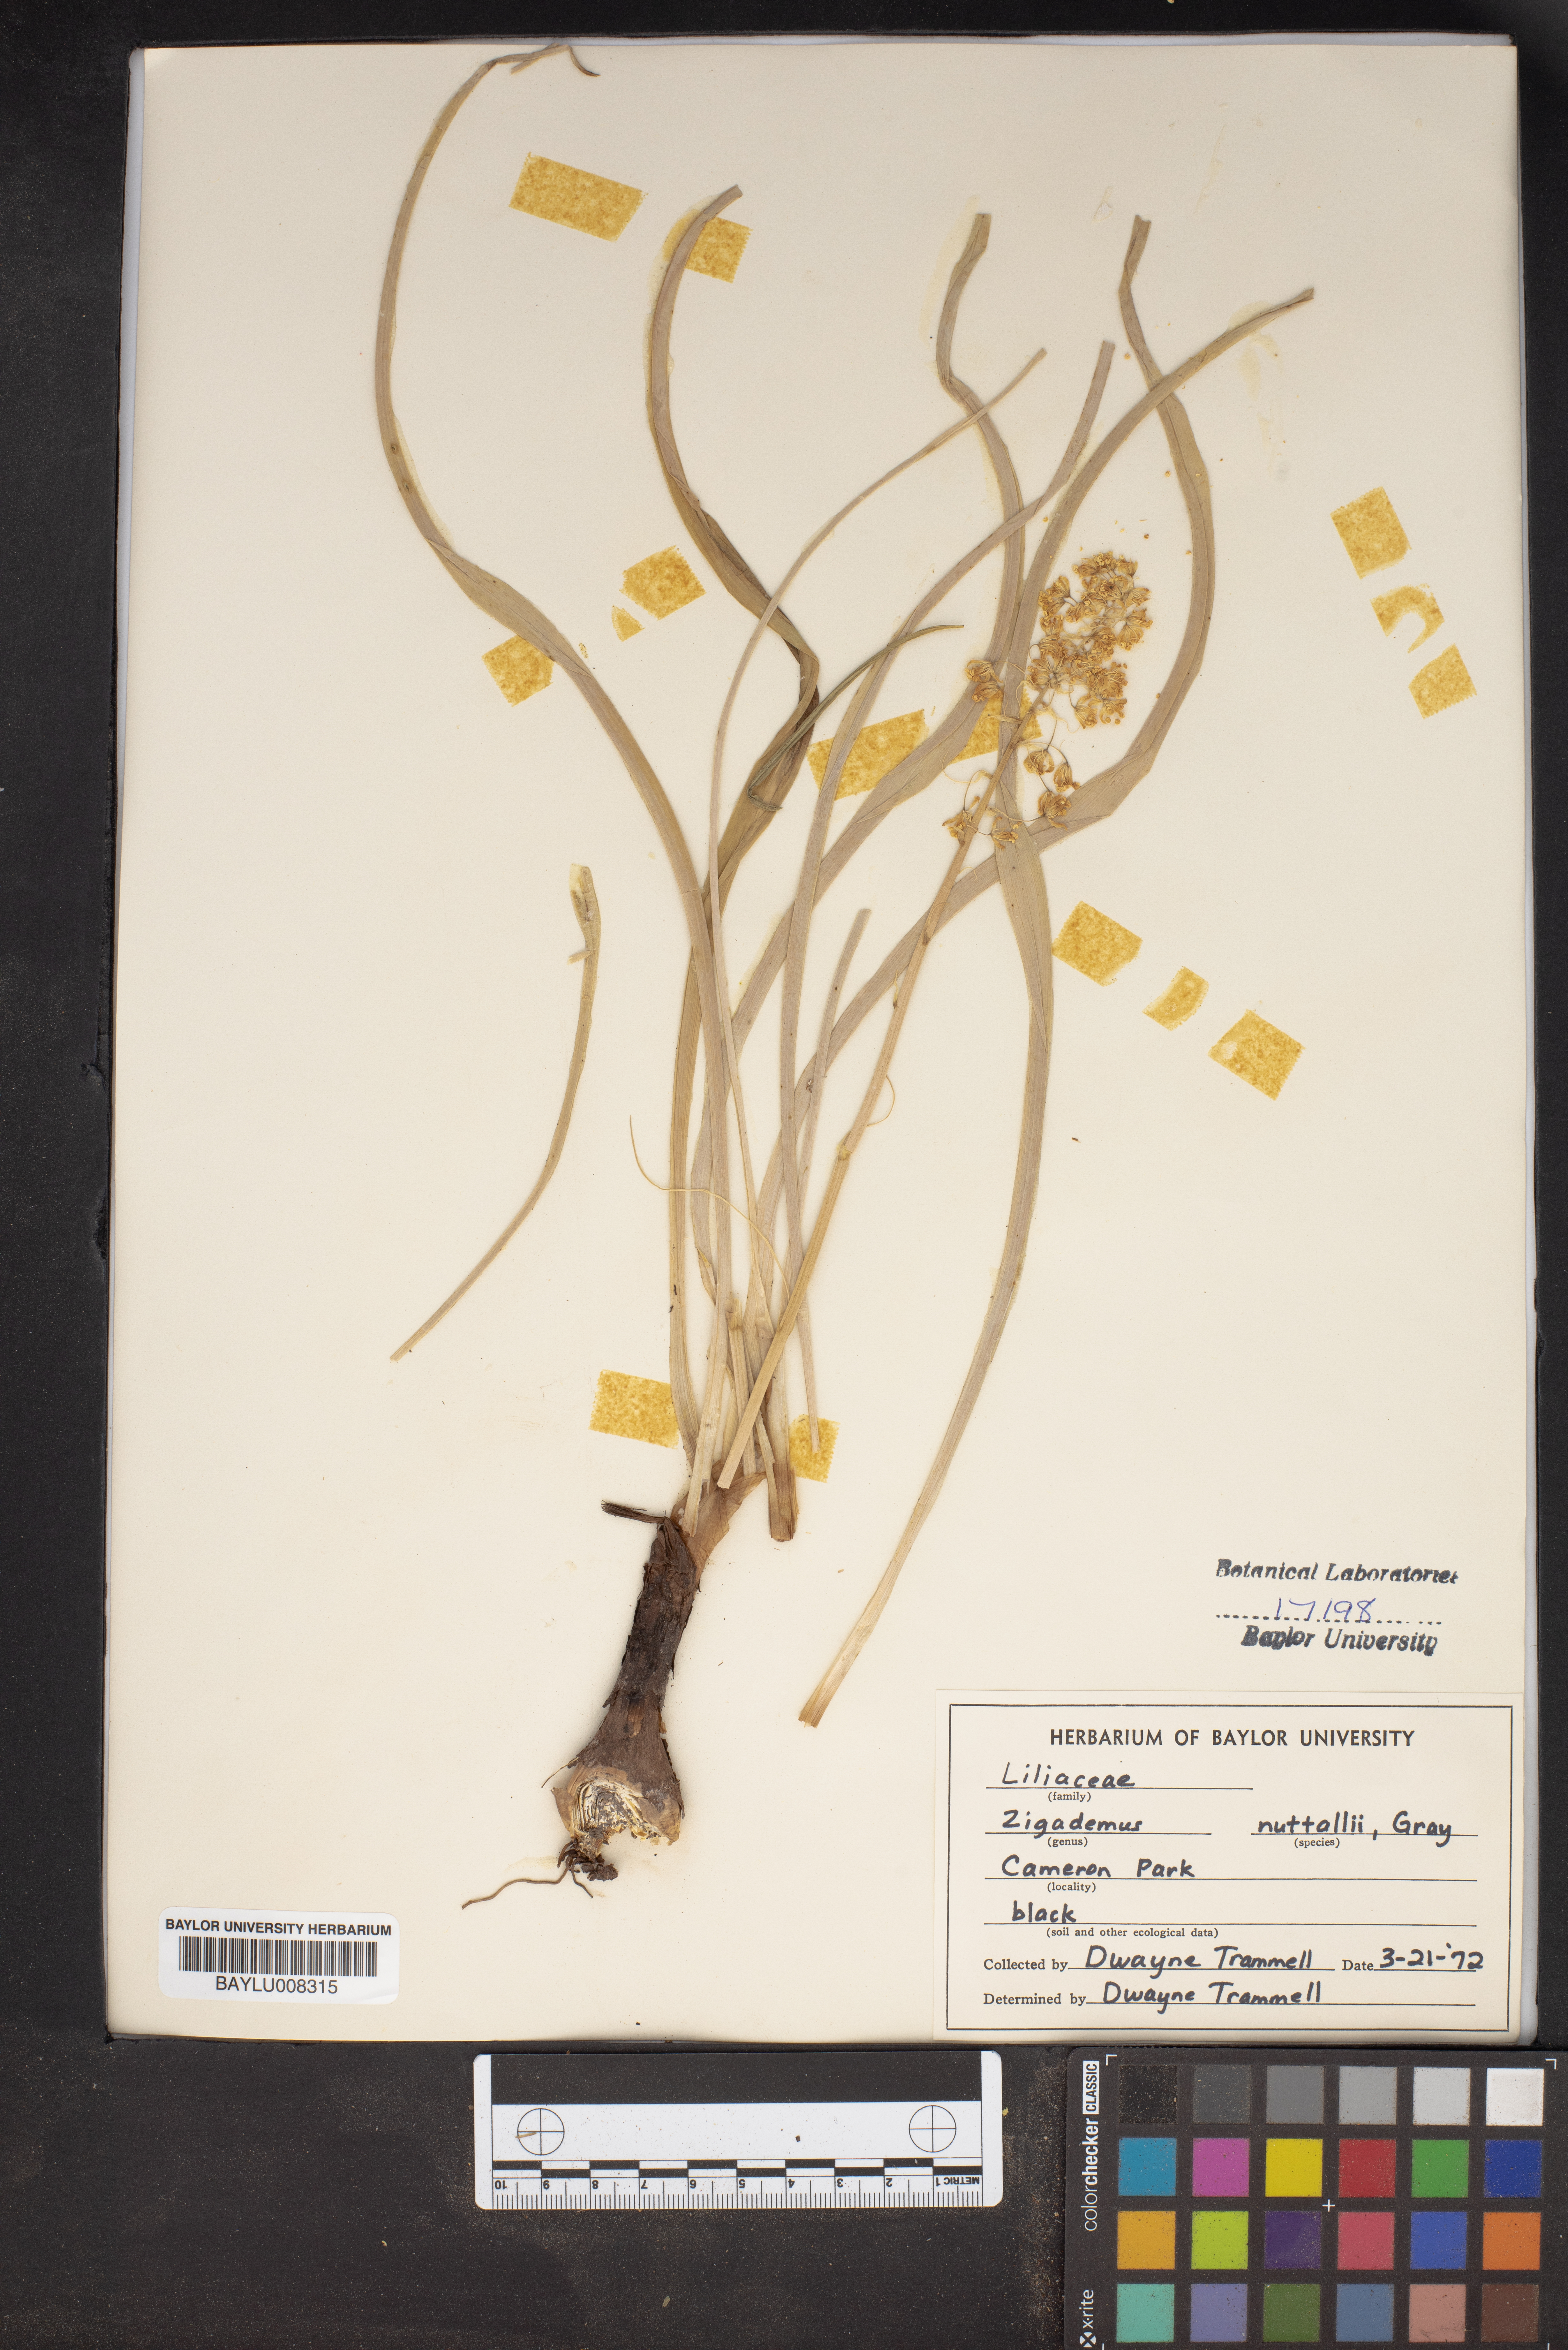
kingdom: Plantae
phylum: Tracheophyta
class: Liliopsida
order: Liliales
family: Melanthiaceae
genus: Toxicoscordion
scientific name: Toxicoscordion nuttallii
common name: Poison sego
